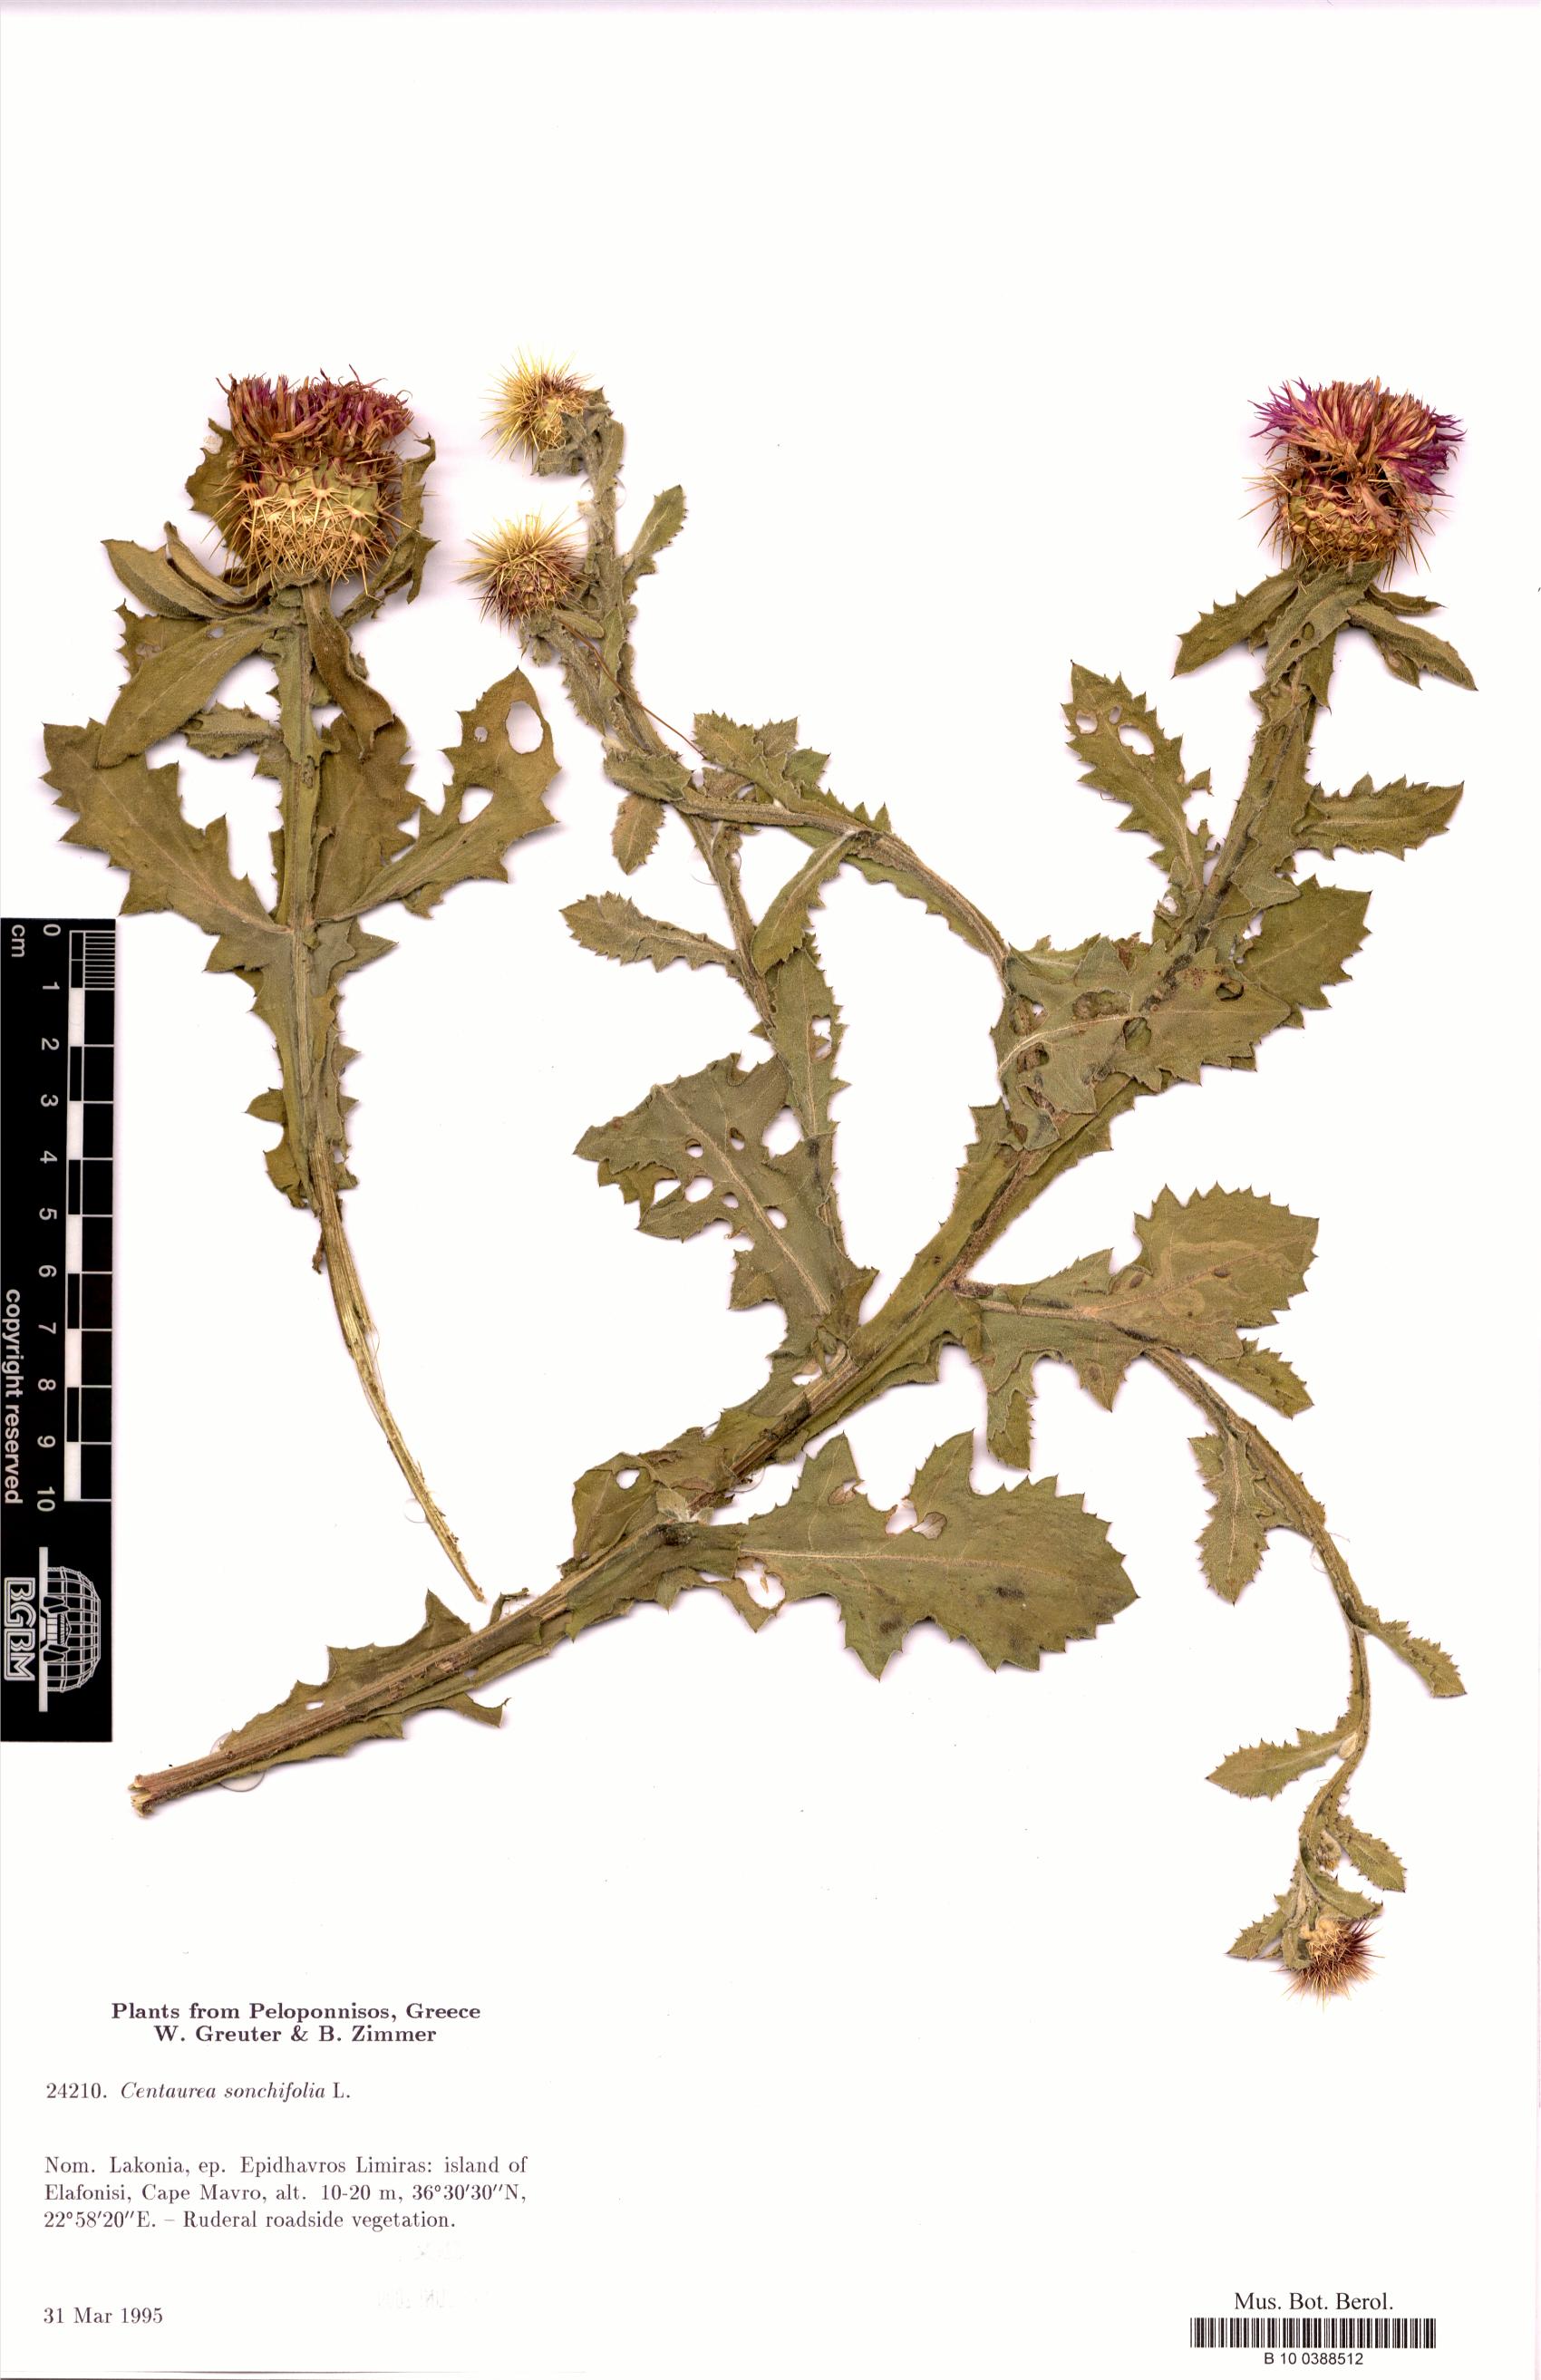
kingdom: Plantae
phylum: Tracheophyta
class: Magnoliopsida
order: Asterales
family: Asteraceae
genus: Centaurea
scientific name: Centaurea seridis
